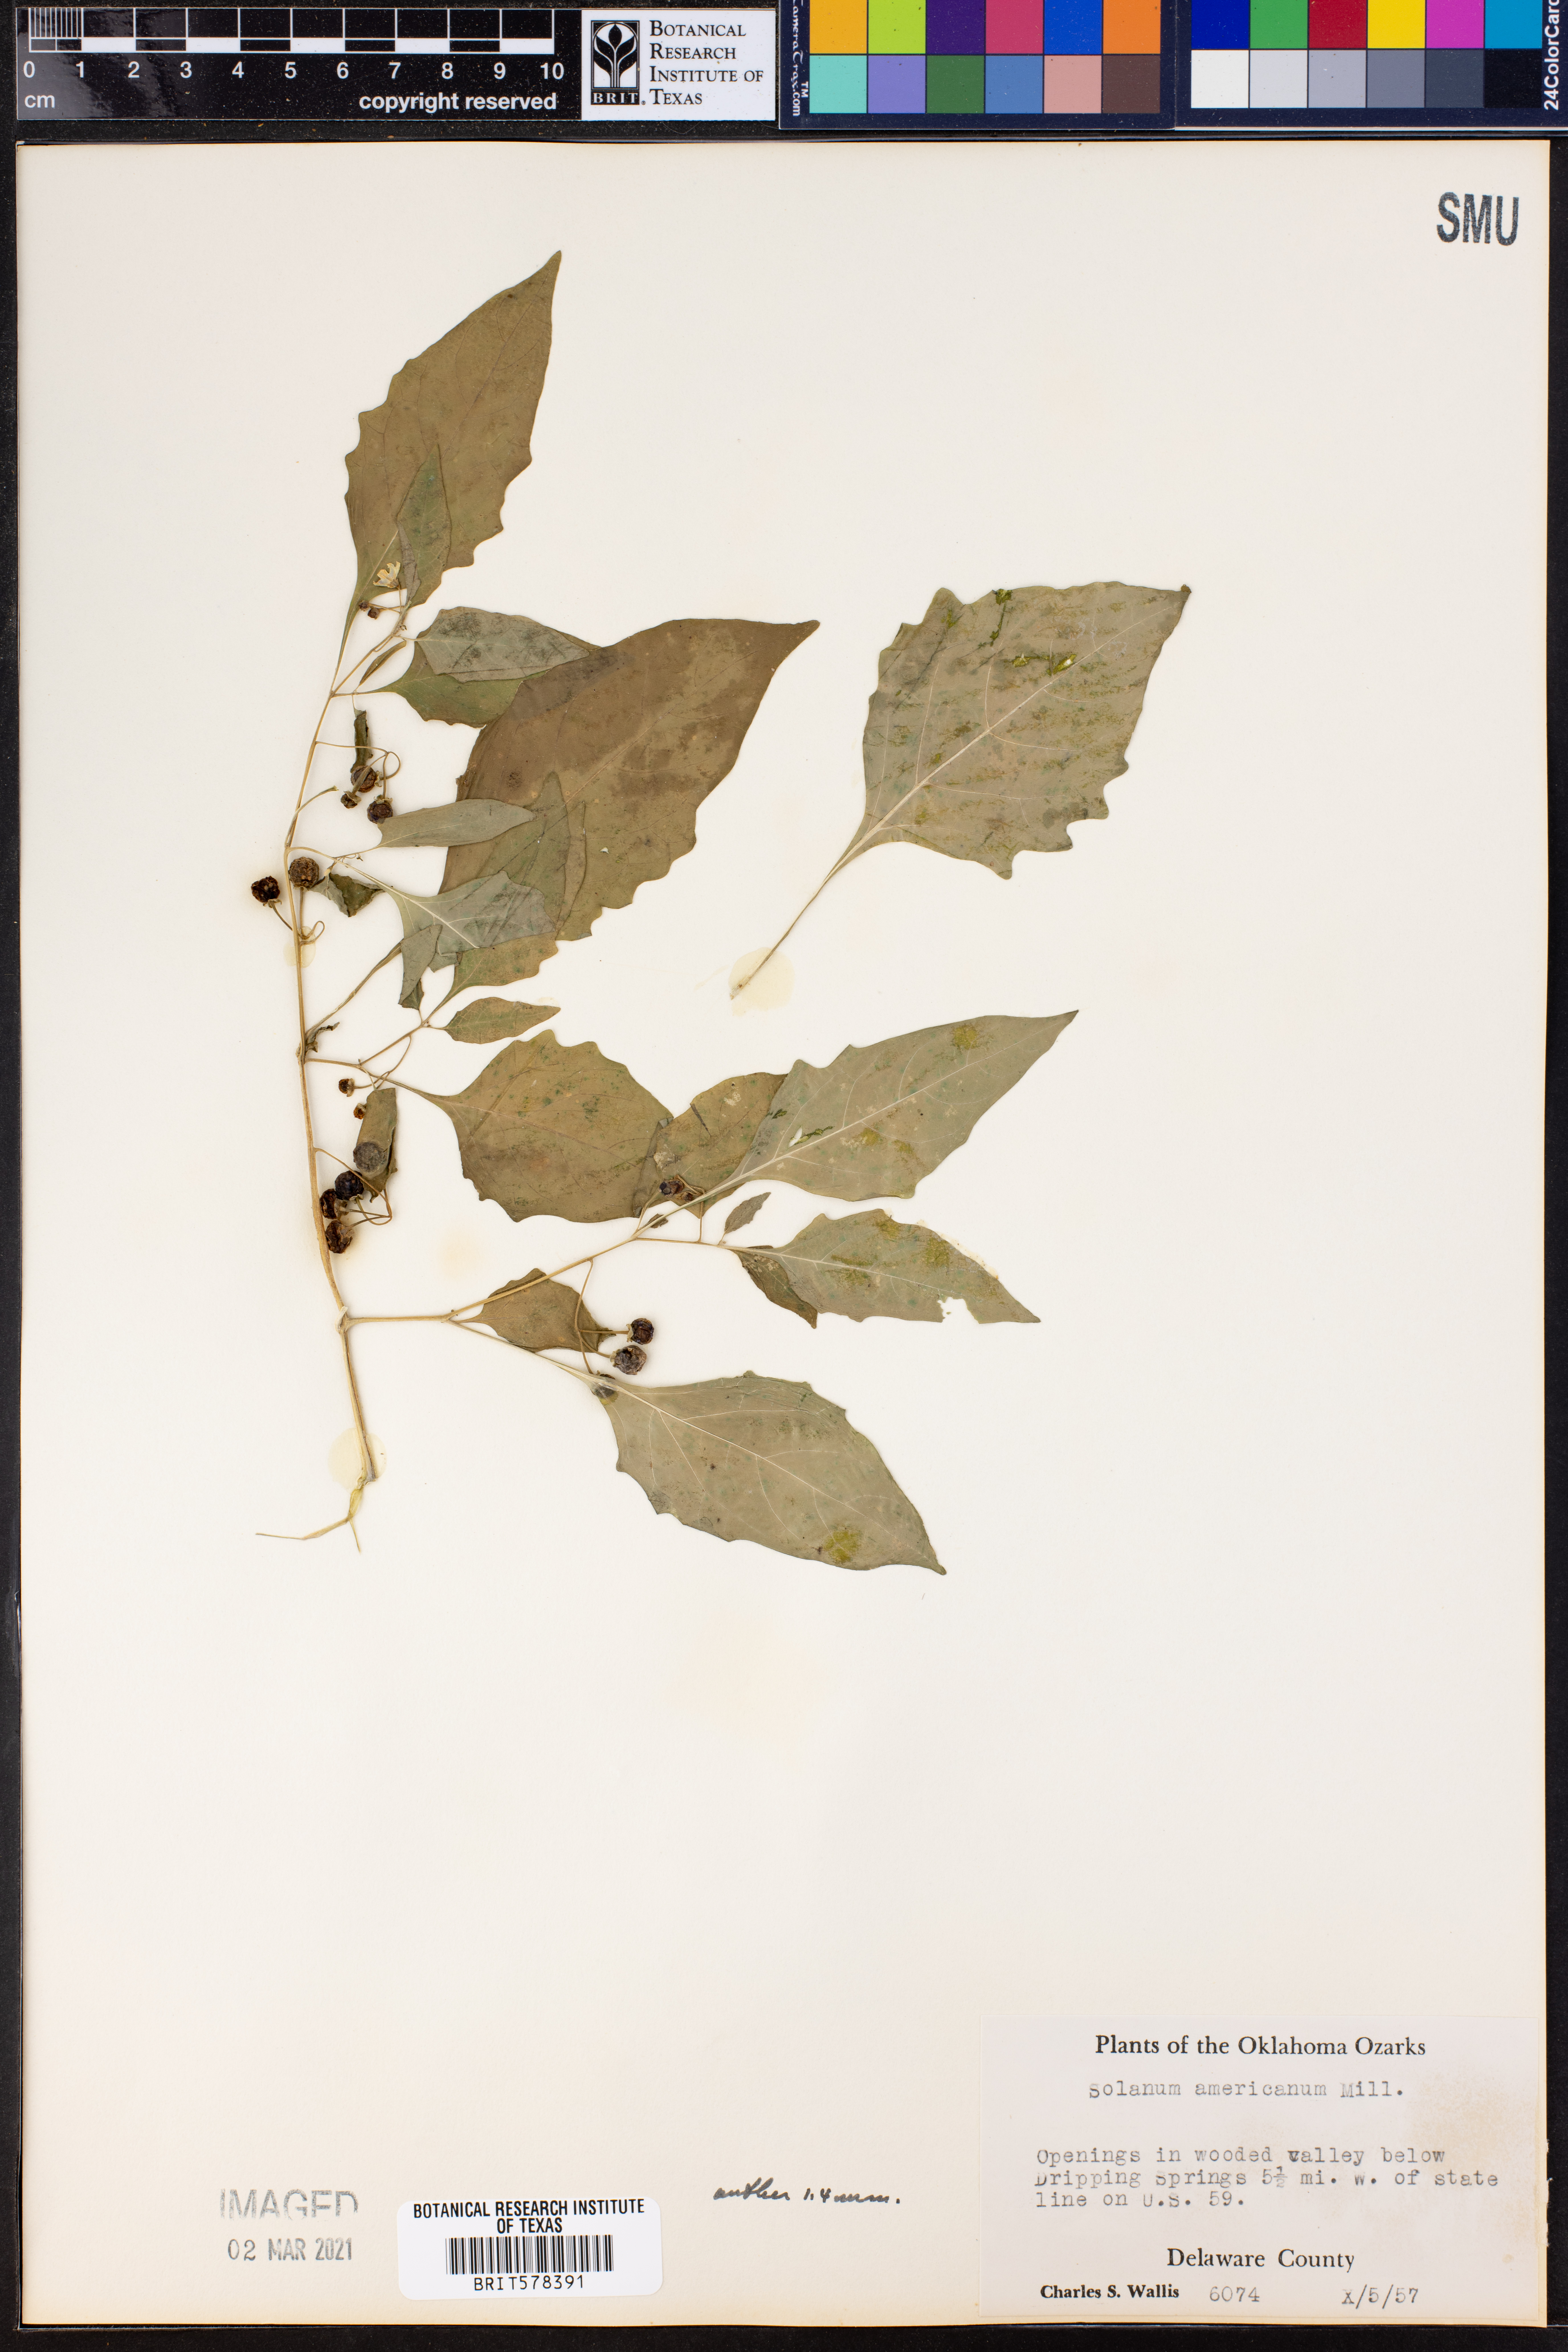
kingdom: Plantae
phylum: Tracheophyta
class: Magnoliopsida
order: Solanales
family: Solanaceae
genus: Solanum
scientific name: Solanum americanum
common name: American black nightshade
